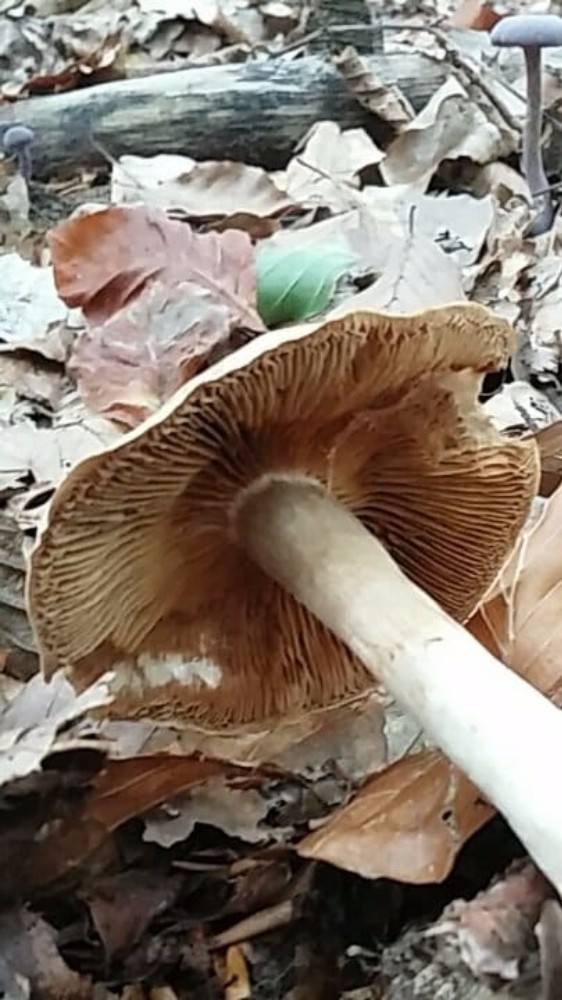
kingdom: Fungi
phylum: Basidiomycota
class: Agaricomycetes
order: Agaricales
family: Cortinariaceae
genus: Cortinarius
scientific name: Cortinarius
